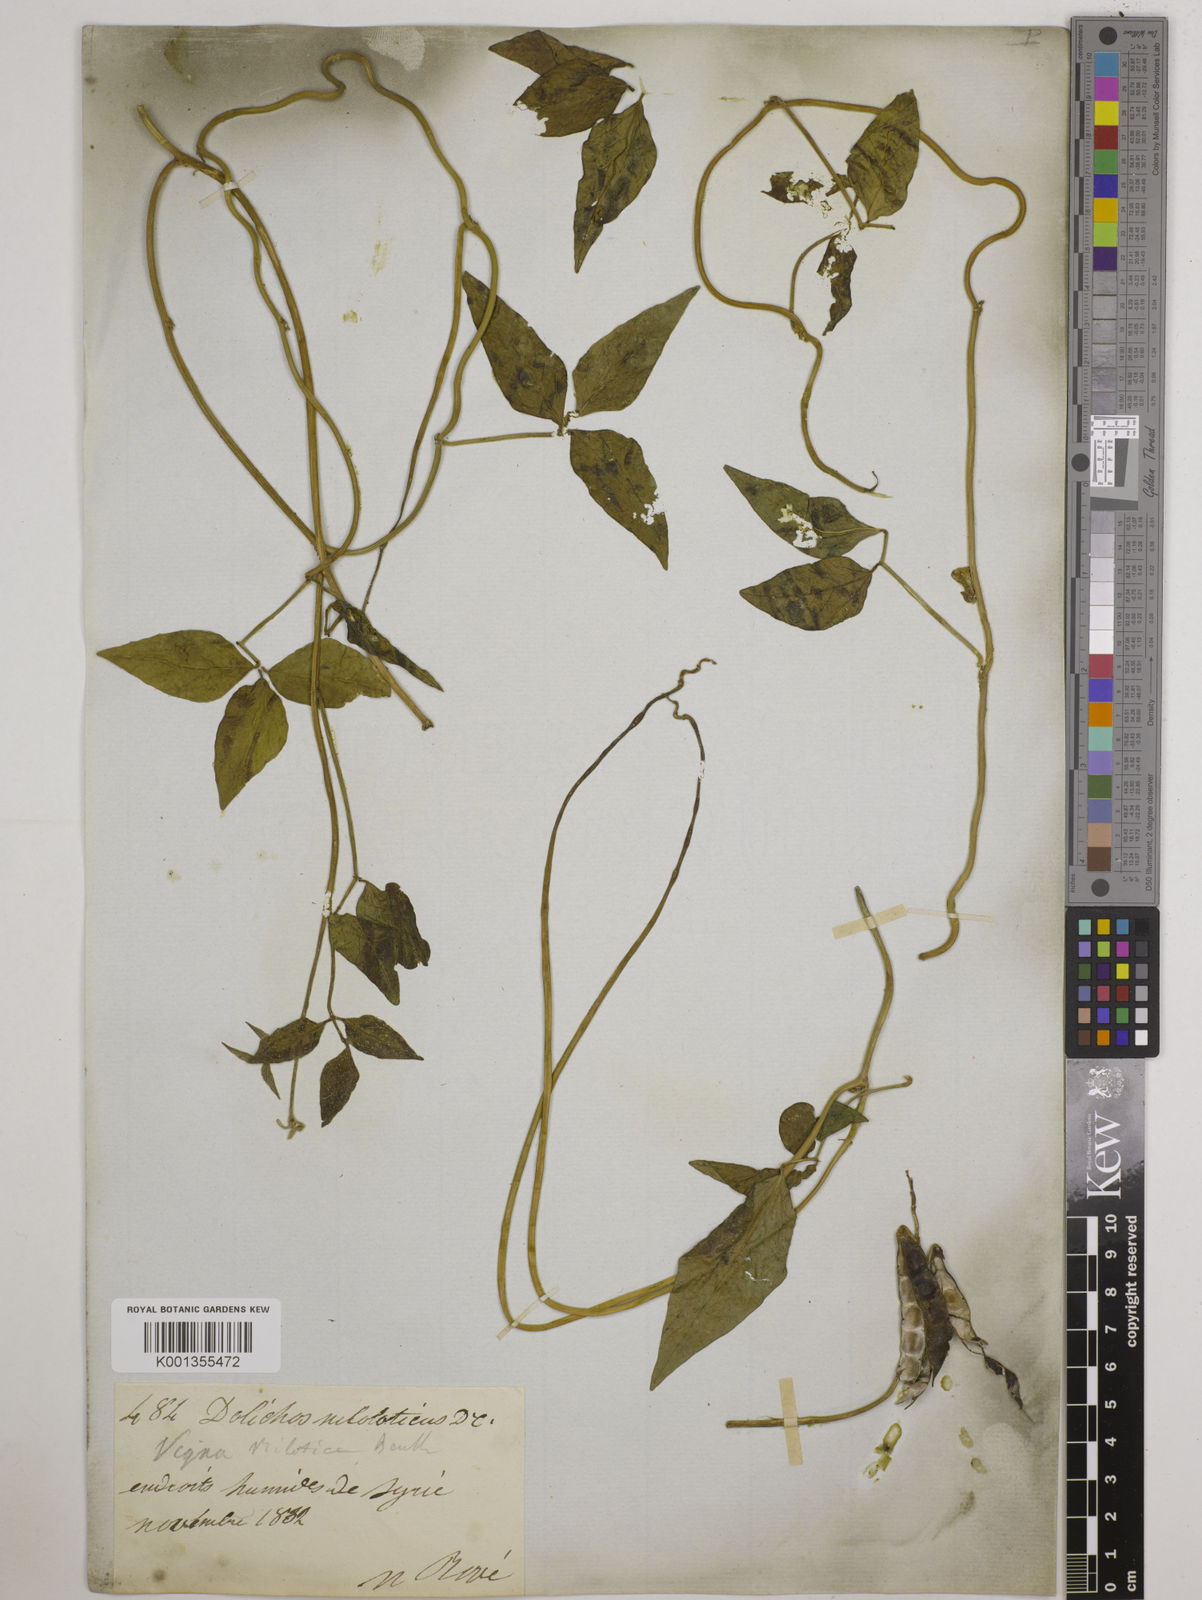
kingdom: Plantae
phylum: Tracheophyta
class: Magnoliopsida
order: Fabales
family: Fabaceae
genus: Vigna
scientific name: Vigna luteola
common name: Hairypod cowpea
